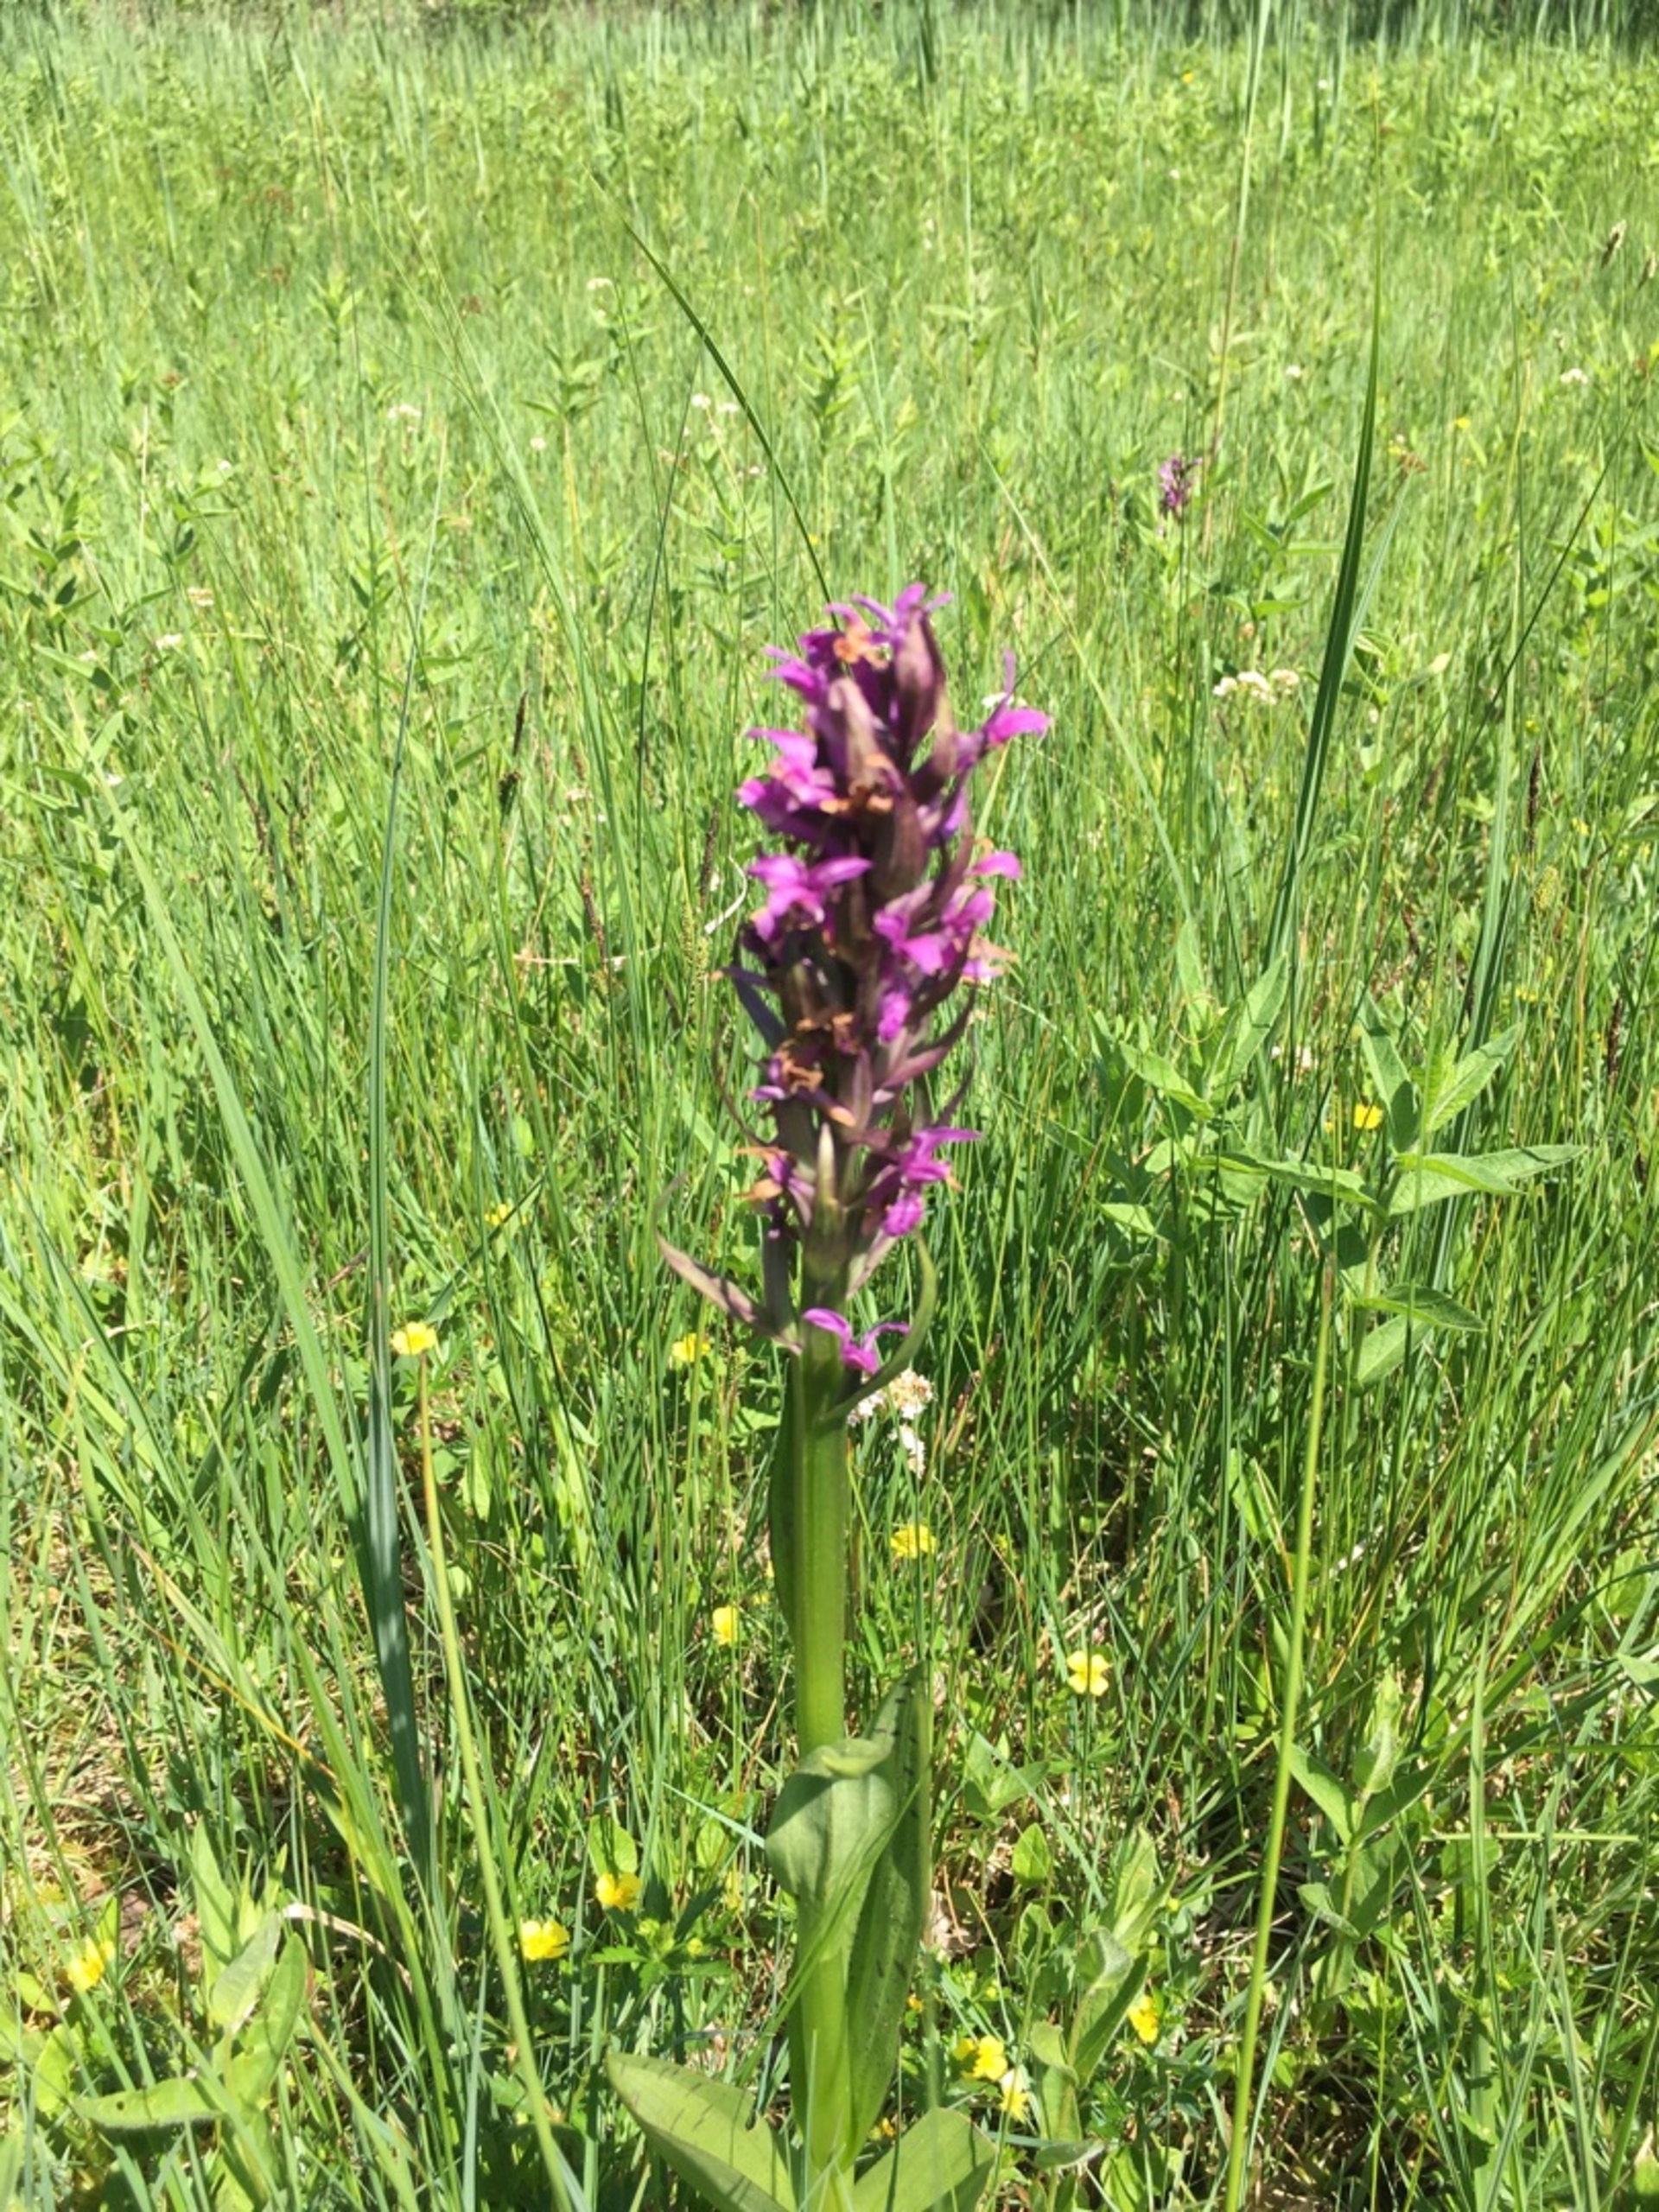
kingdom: Plantae
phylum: Tracheophyta
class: Liliopsida
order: Asparagales
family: Orchidaceae
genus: Dactylorhiza
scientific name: Dactylorhiza majalis
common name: Maj-gøgeurt
